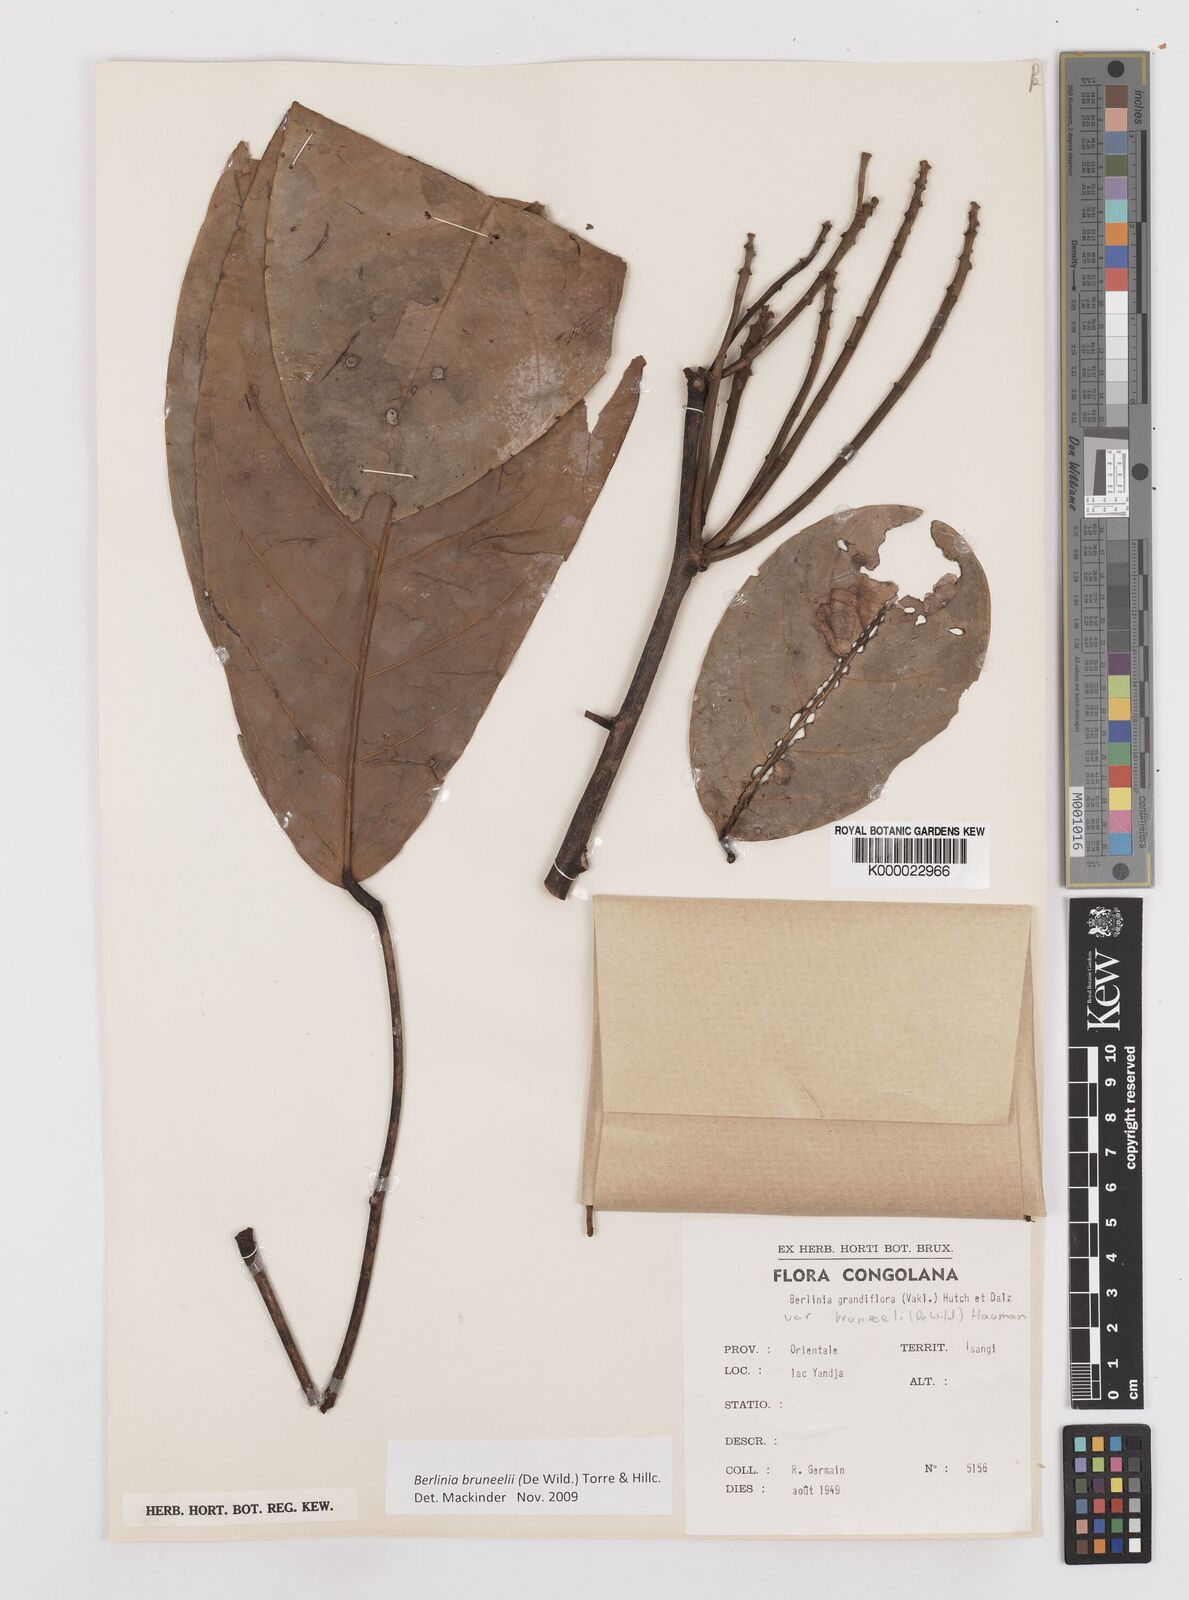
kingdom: Plantae
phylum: Tracheophyta
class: Magnoliopsida
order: Fabales
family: Fabaceae
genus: Berlinia
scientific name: Berlinia phenacoa
